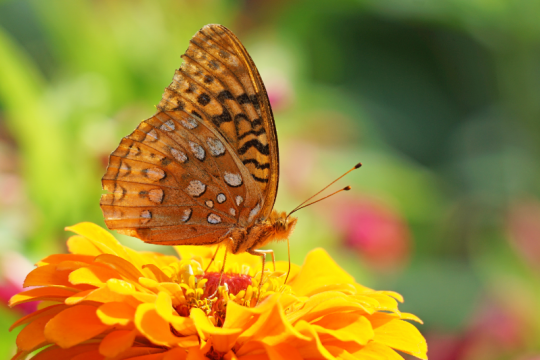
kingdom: Animalia
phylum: Arthropoda
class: Insecta
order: Lepidoptera
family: Nymphalidae
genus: Speyeria
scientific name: Speyeria cybele
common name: Great Spangled Fritillary
